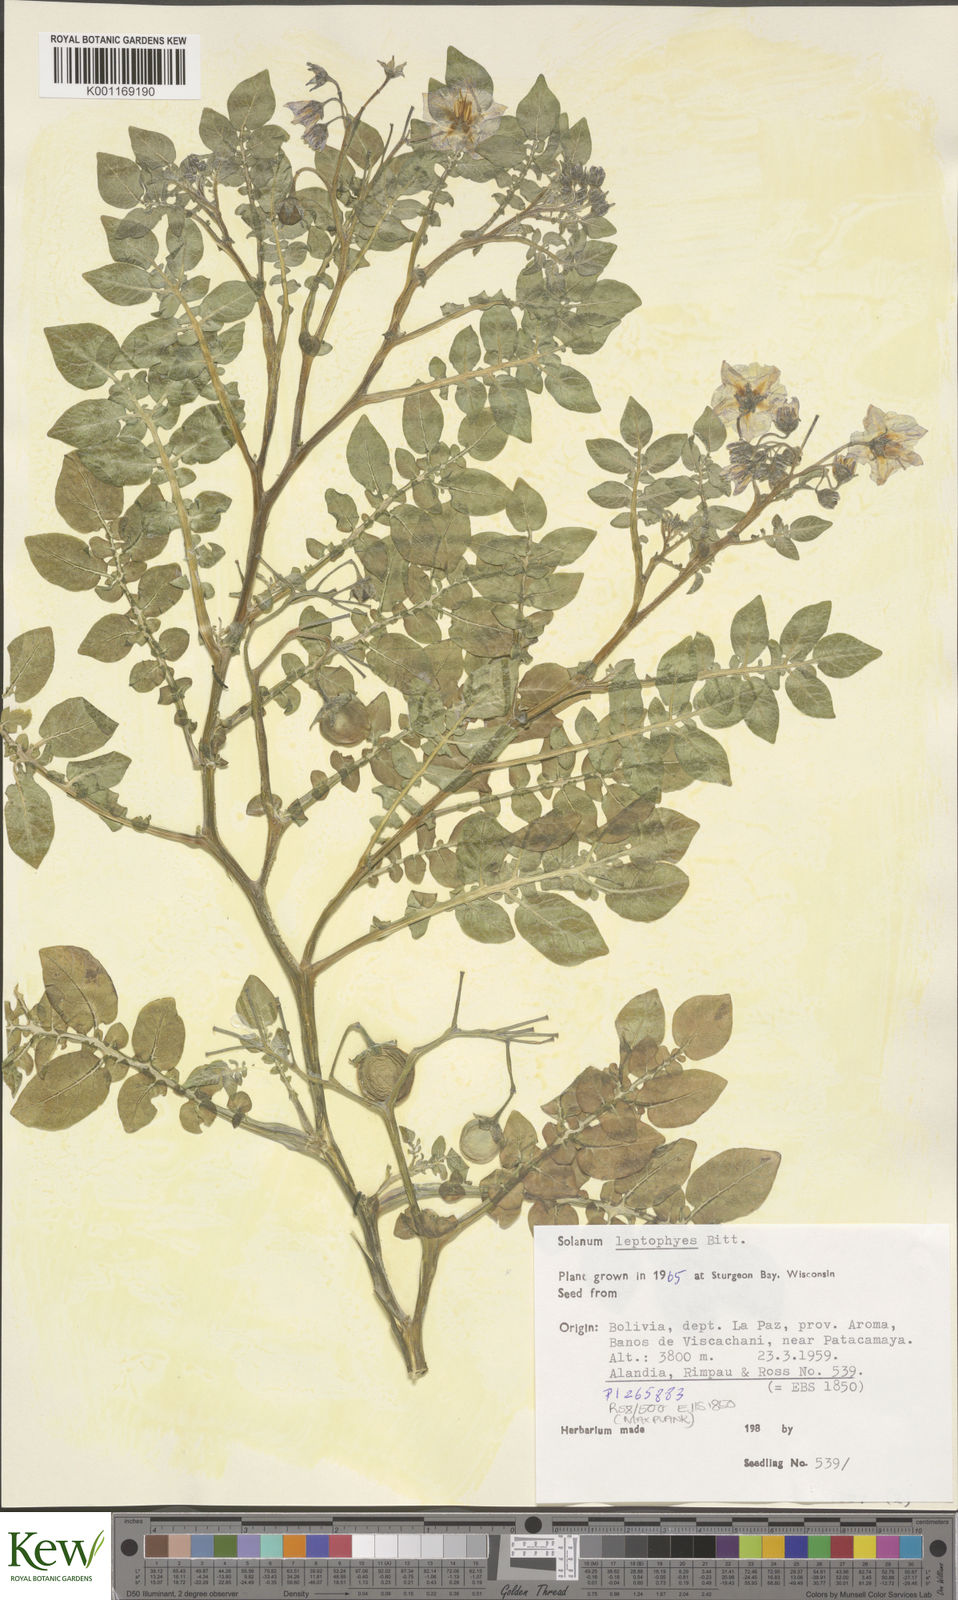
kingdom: Plantae
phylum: Tracheophyta
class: Magnoliopsida
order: Solanales
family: Solanaceae
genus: Solanum
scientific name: Solanum brevicaule
